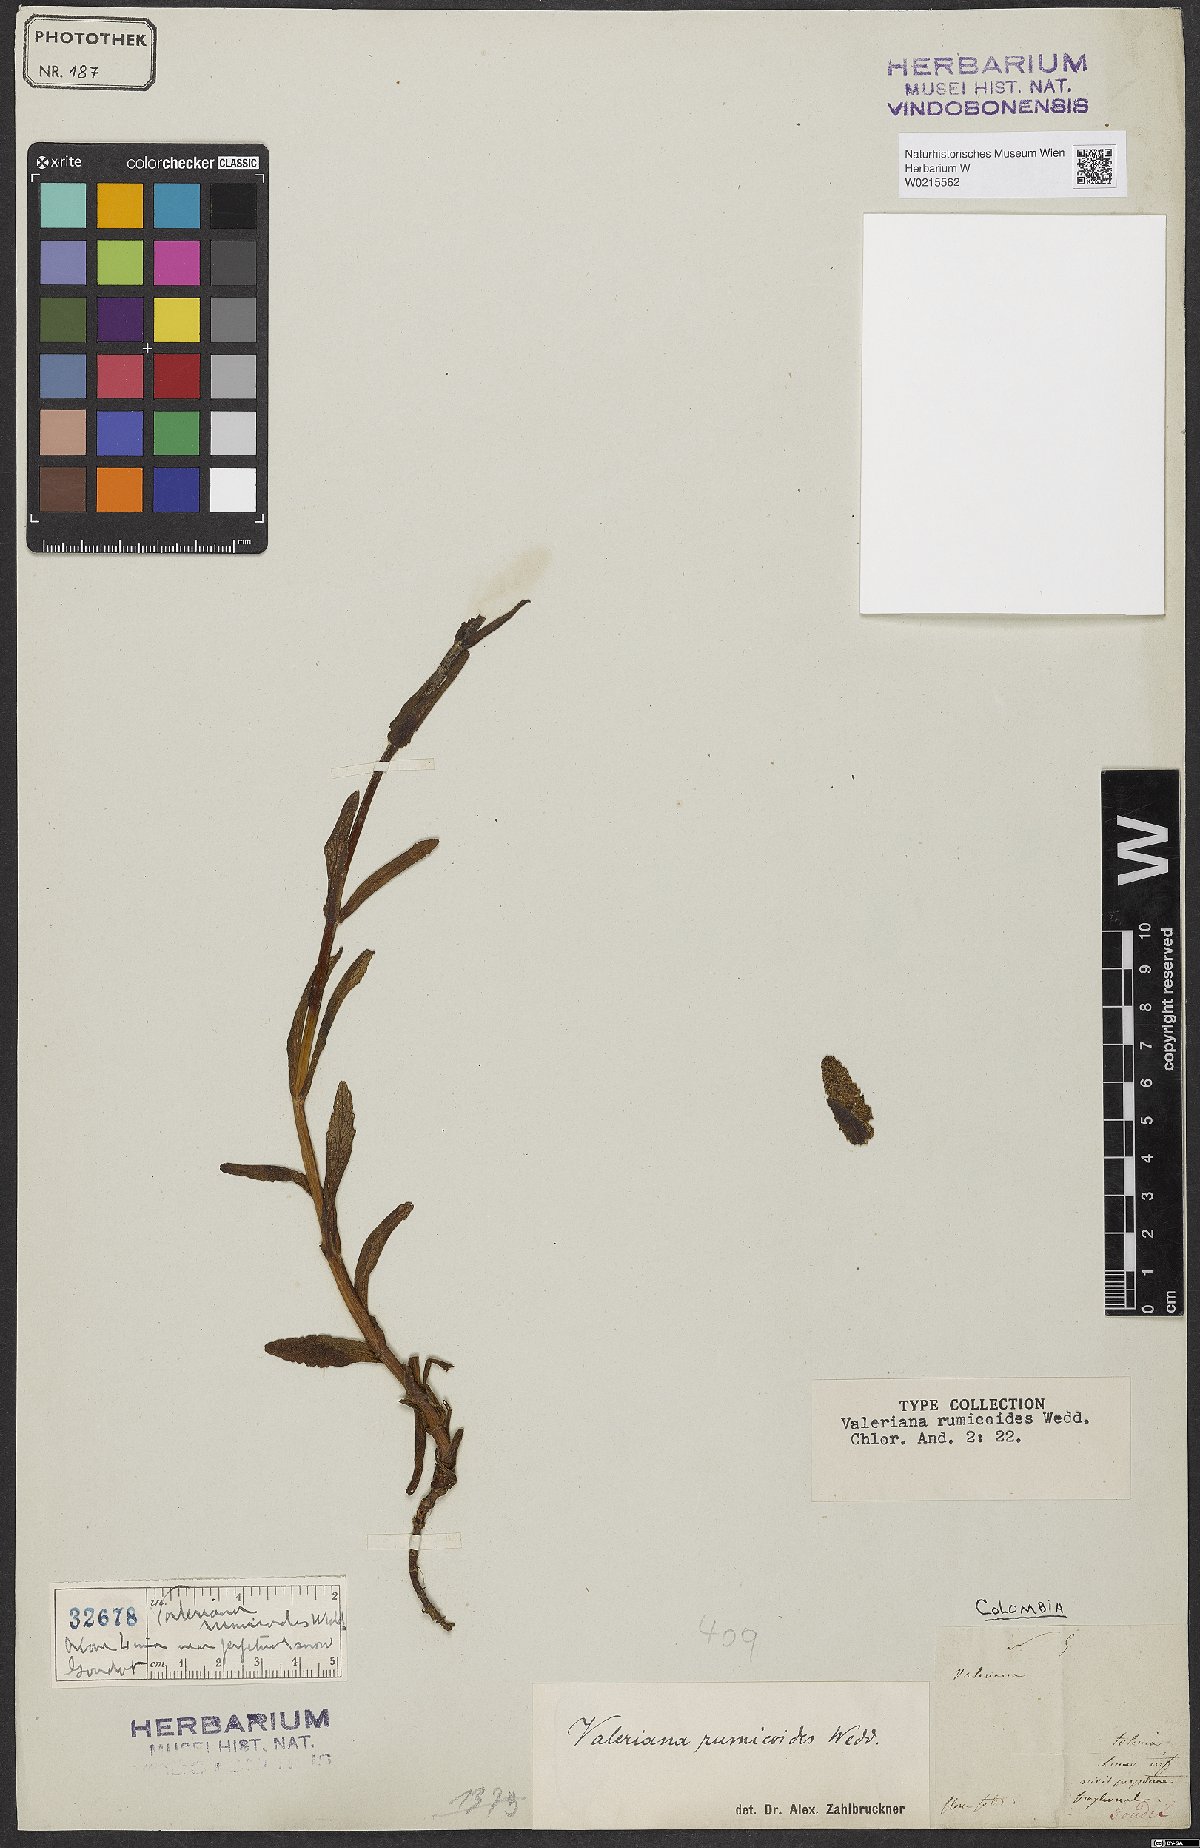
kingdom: Plantae
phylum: Tracheophyta
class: Magnoliopsida
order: Dipsacales
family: Caprifoliaceae
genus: Valeriana
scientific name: Valeriana rumicoides
